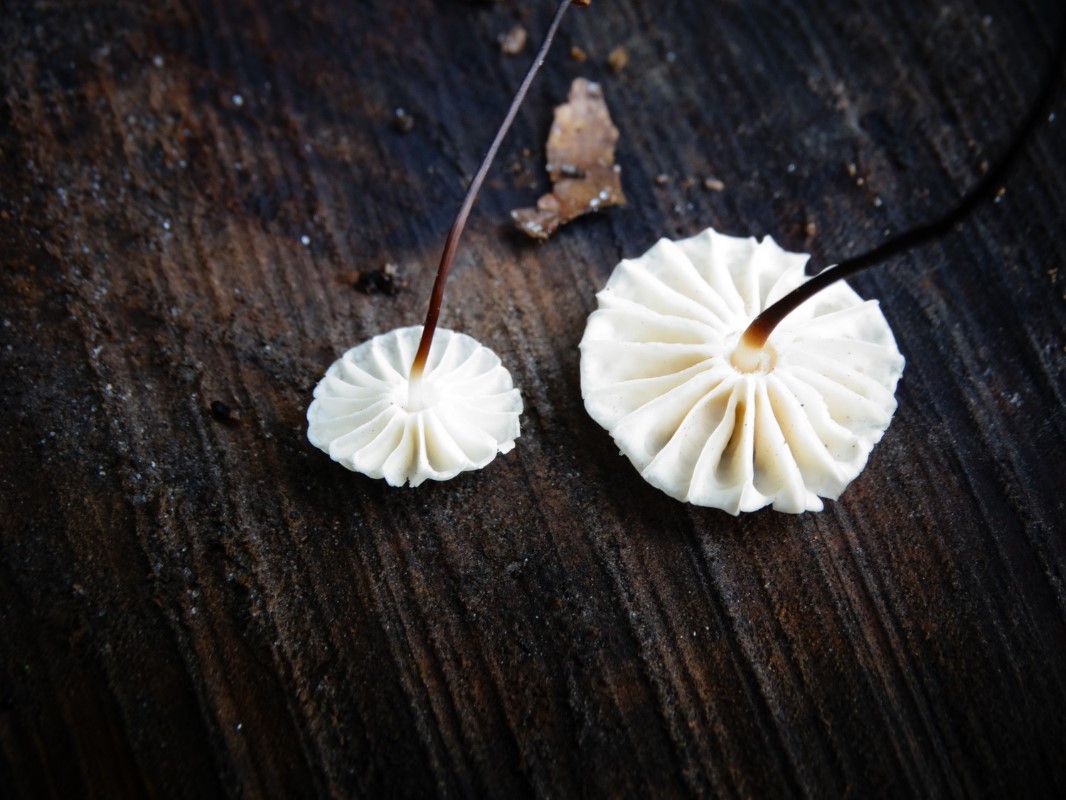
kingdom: Fungi
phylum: Basidiomycota
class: Agaricomycetes
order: Agaricales
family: Marasmiaceae
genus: Marasmius
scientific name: Marasmius rotula
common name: hjul-bruskhat
